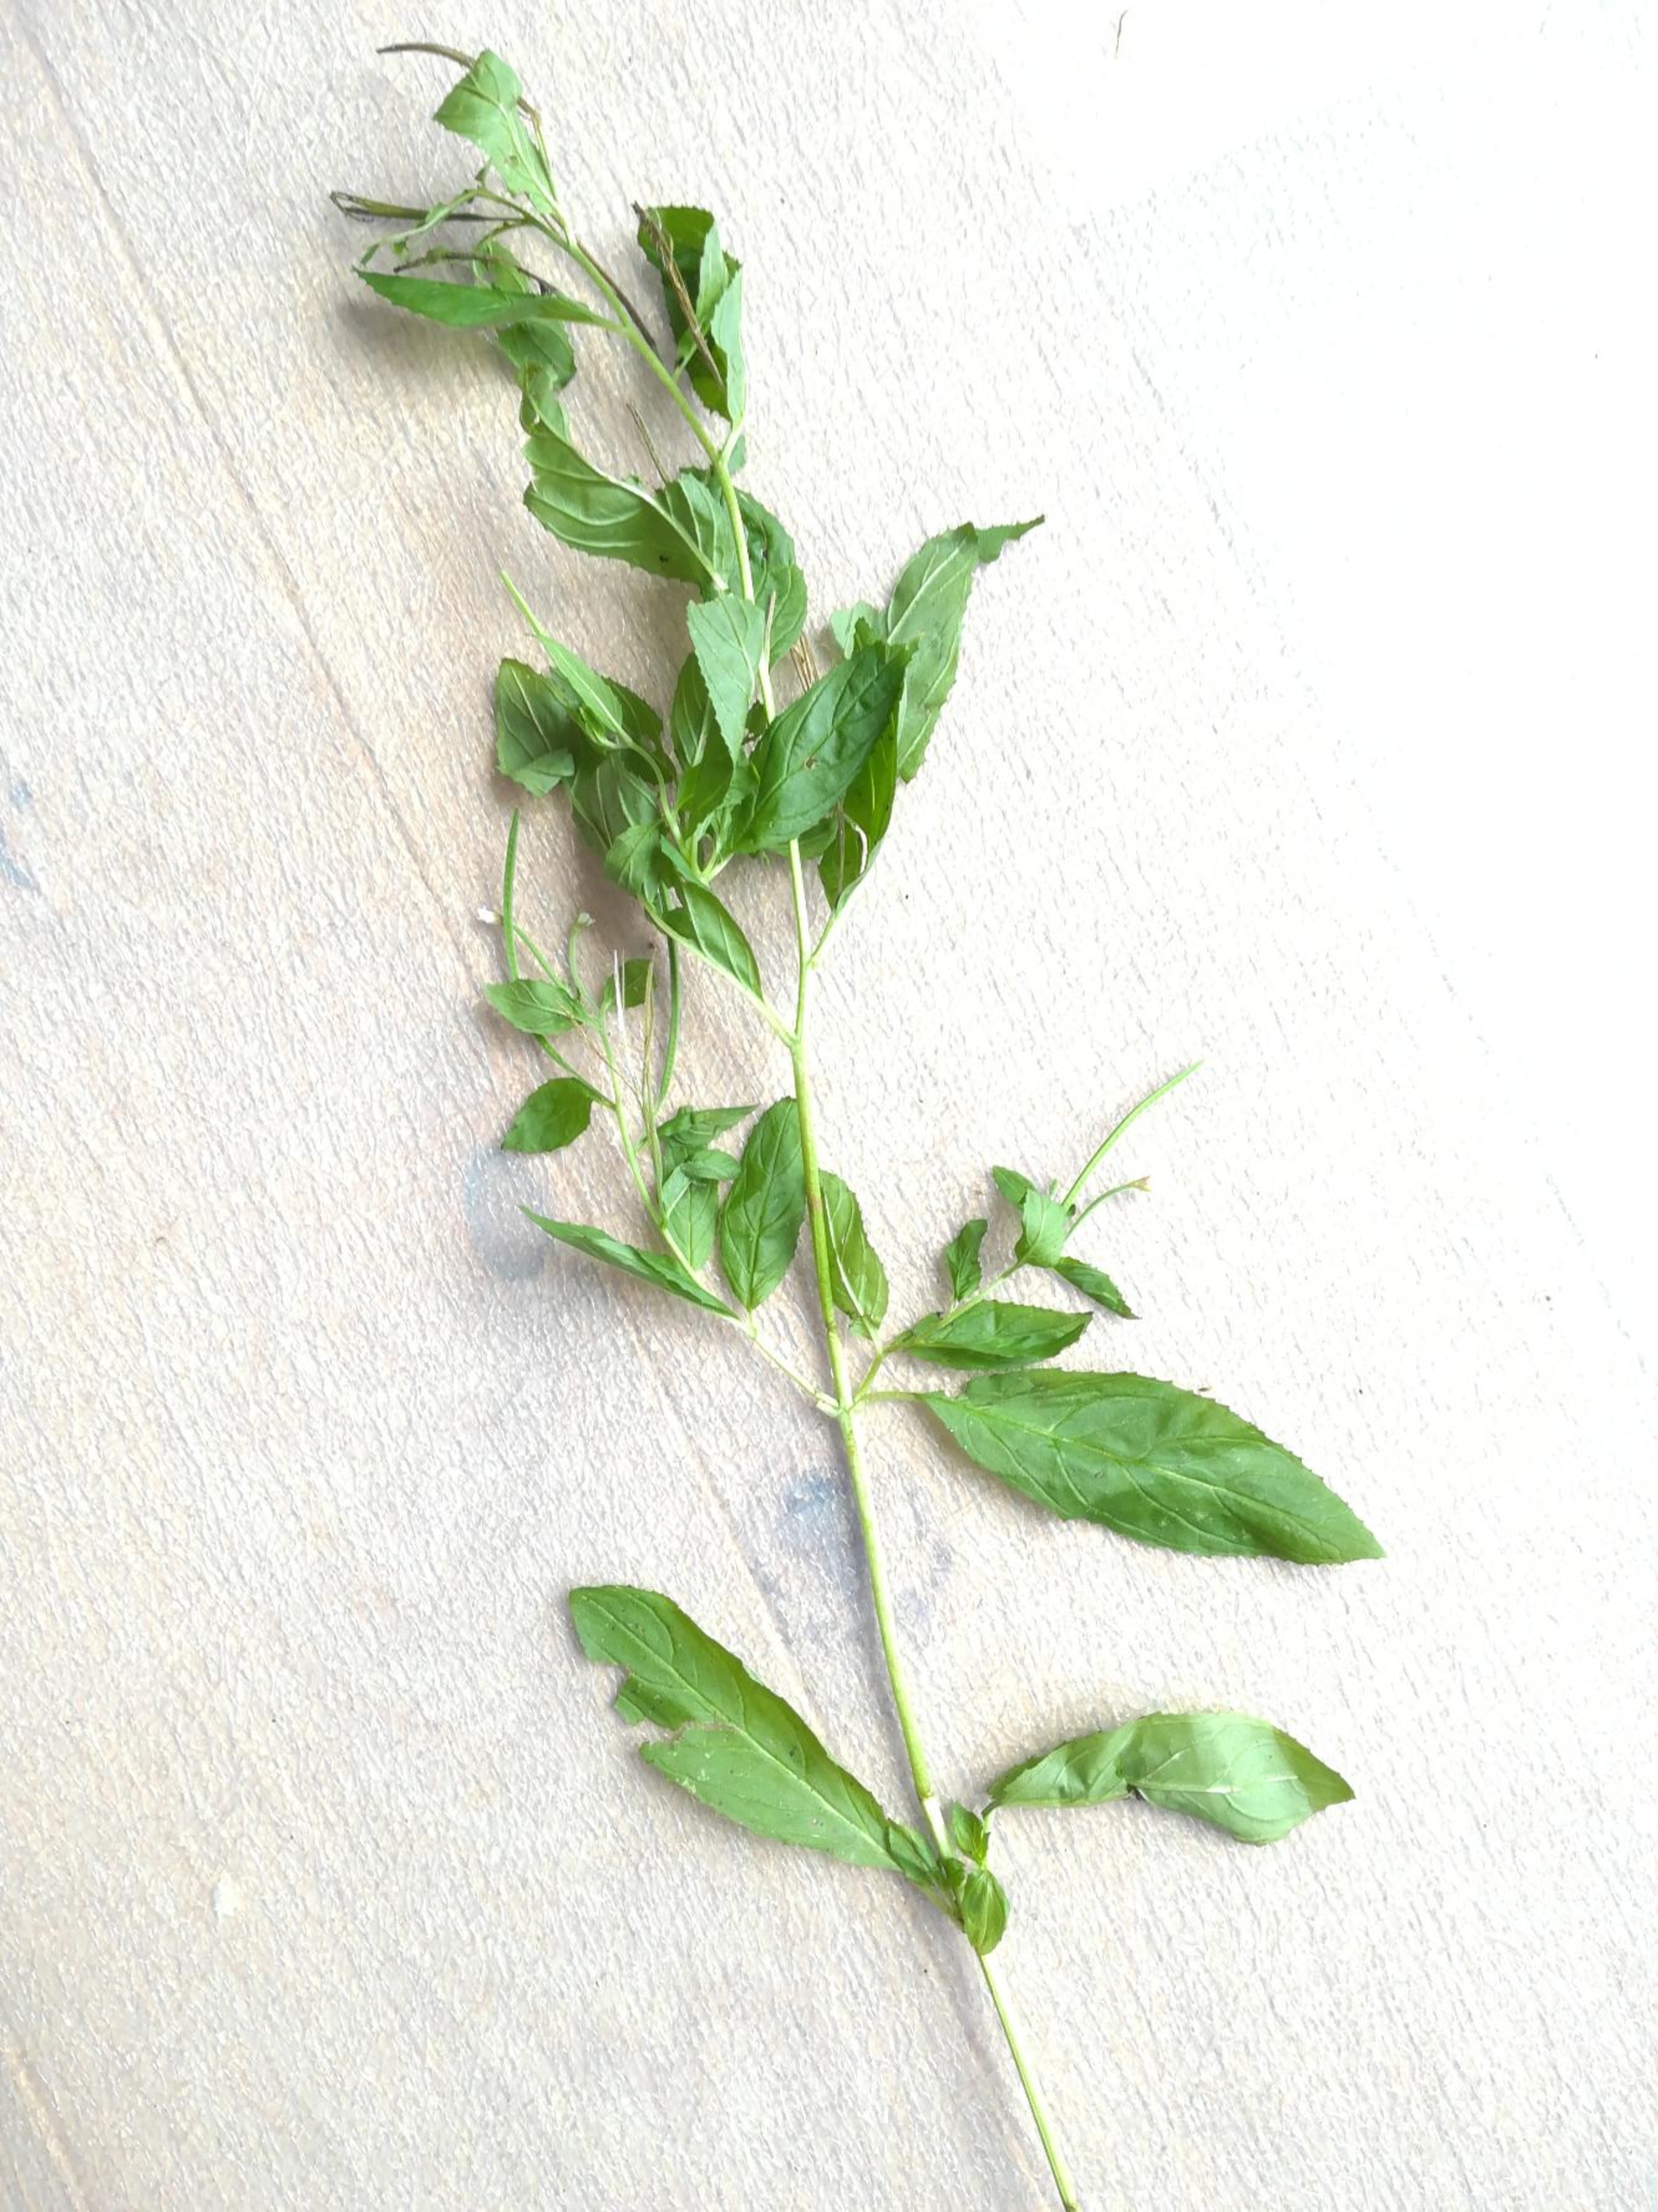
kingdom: Plantae
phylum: Tracheophyta
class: Magnoliopsida
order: Myrtales
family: Onagraceae
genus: Epilobium
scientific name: Epilobium roseum
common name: Rosen-dueurt
